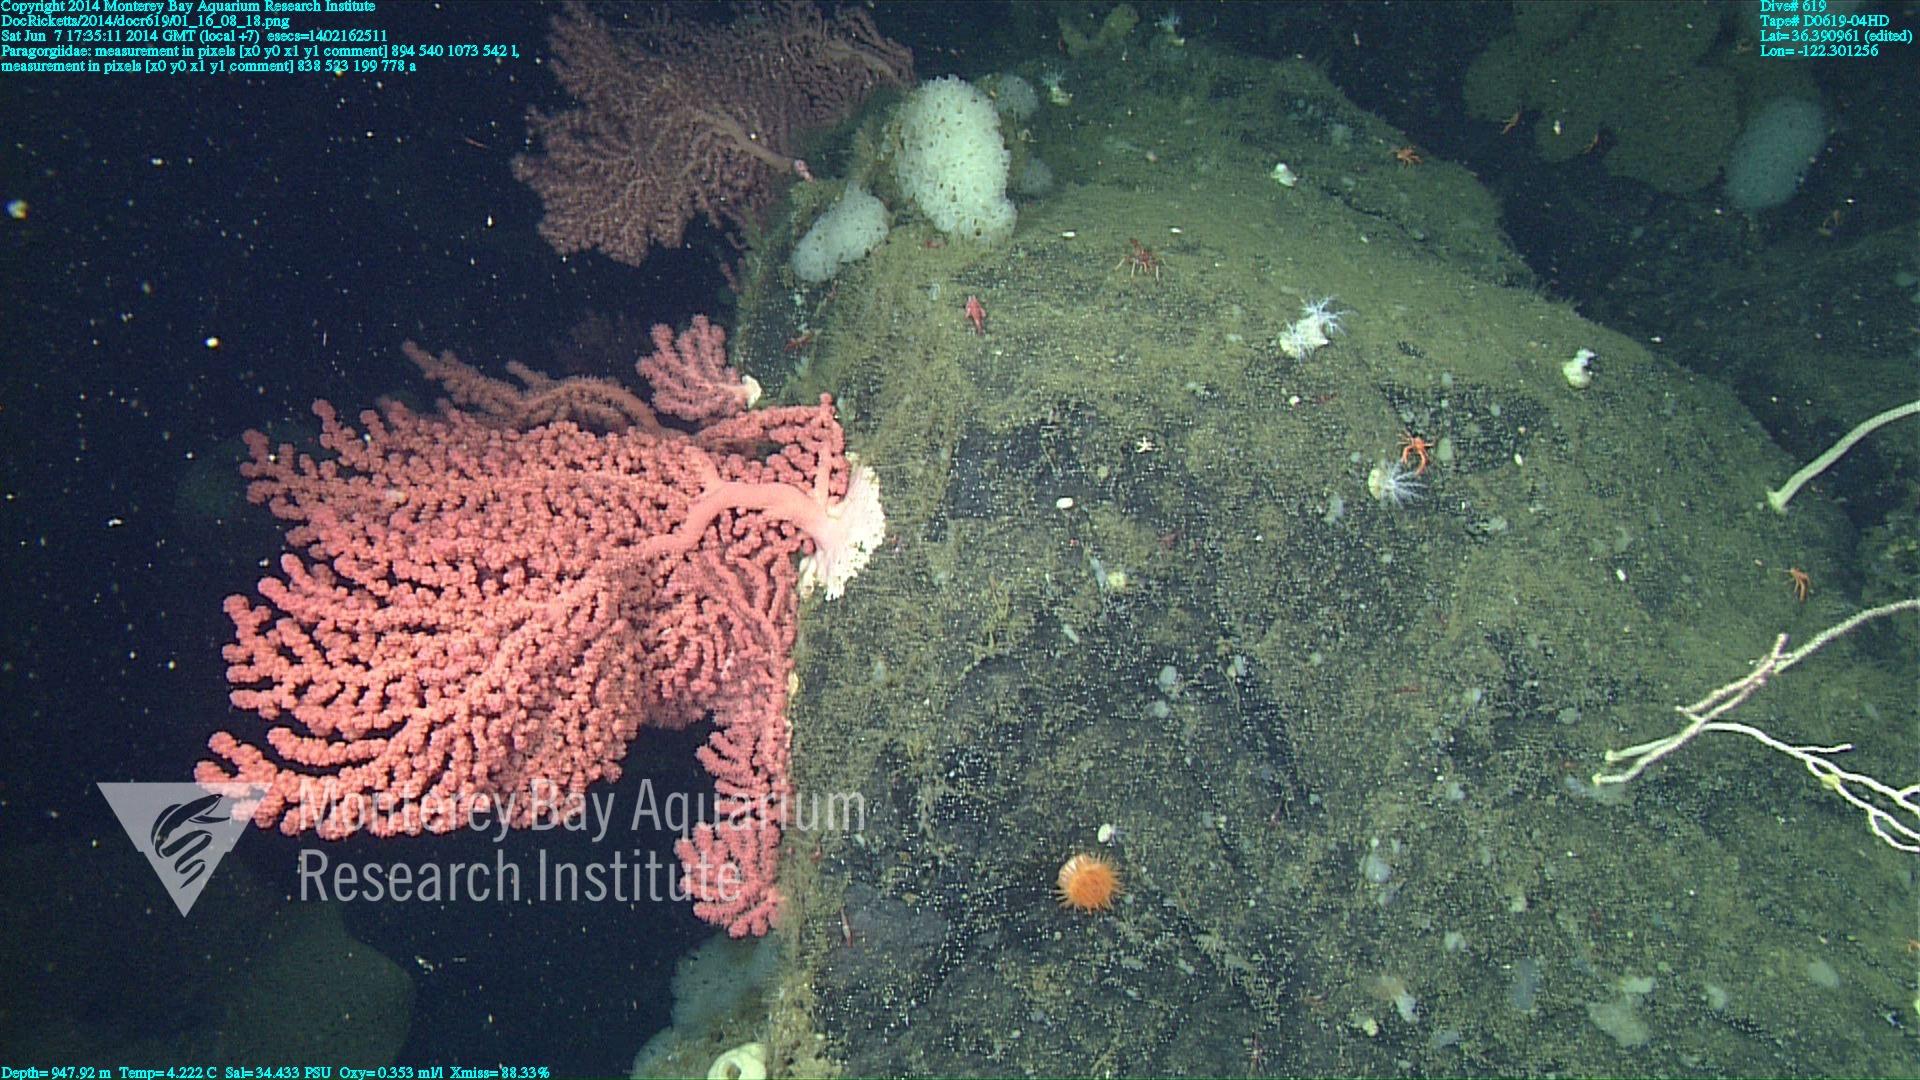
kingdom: Animalia
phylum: Cnidaria
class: Anthozoa
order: Scleralcyonacea
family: Coralliidae
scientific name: Coralliidae
